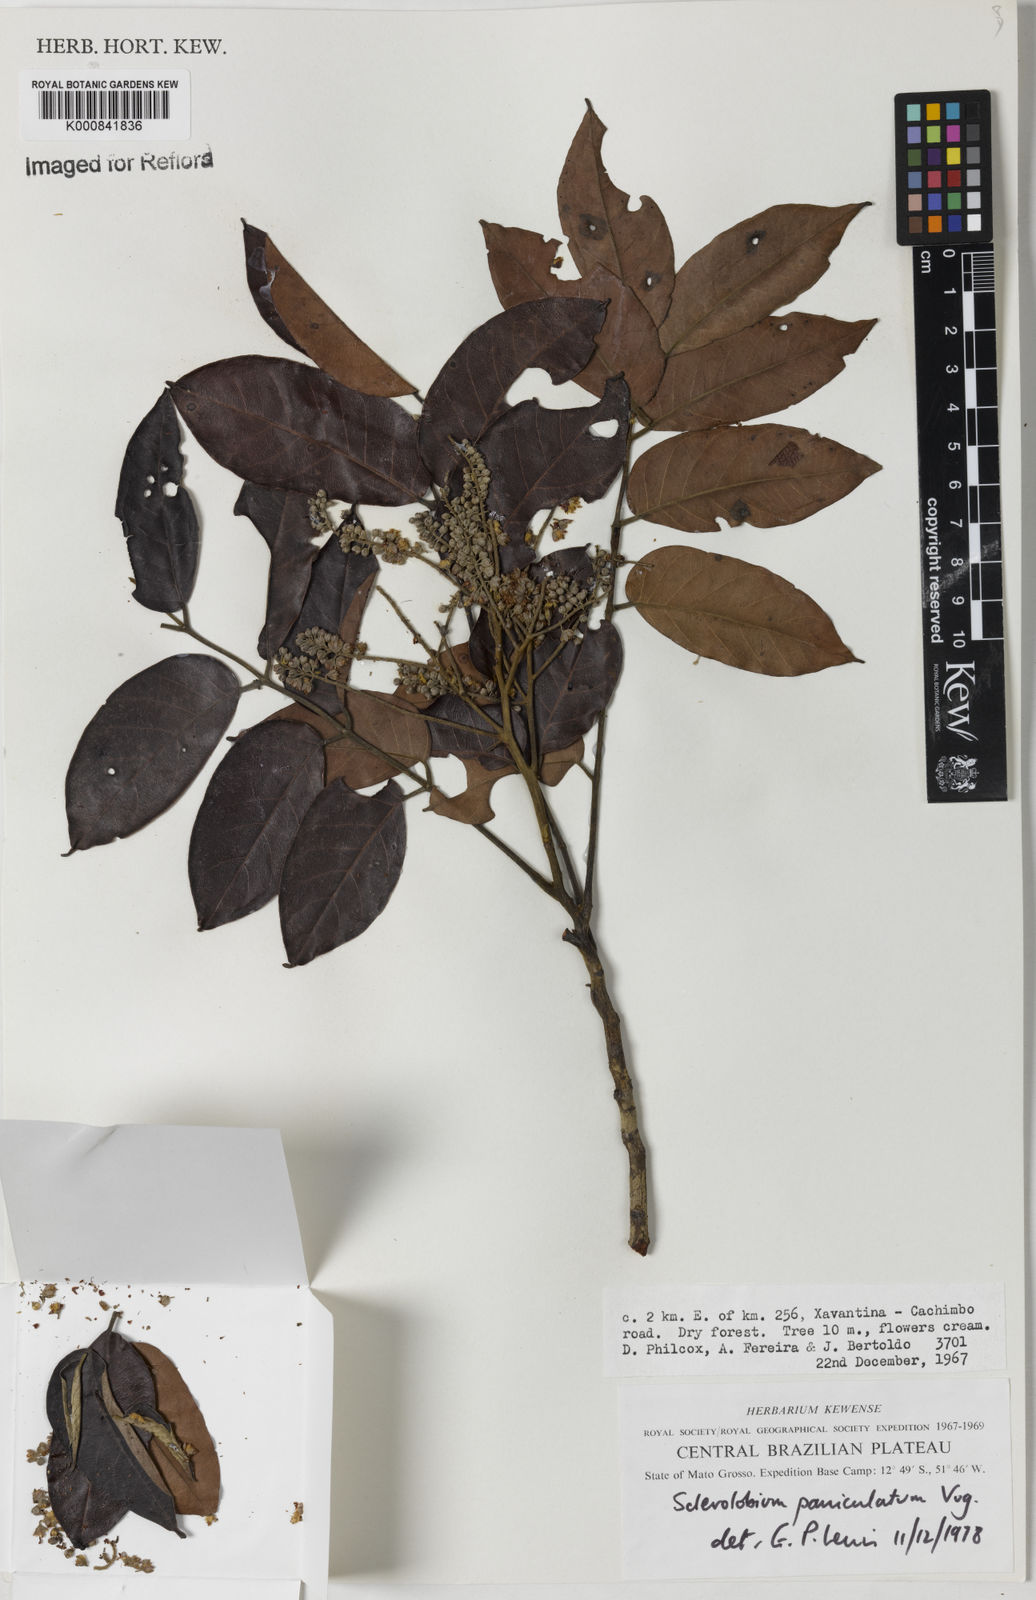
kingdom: Plantae
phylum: Tracheophyta
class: Magnoliopsida
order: Fabales
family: Fabaceae
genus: Tachigali
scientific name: Tachigali vulgaris
